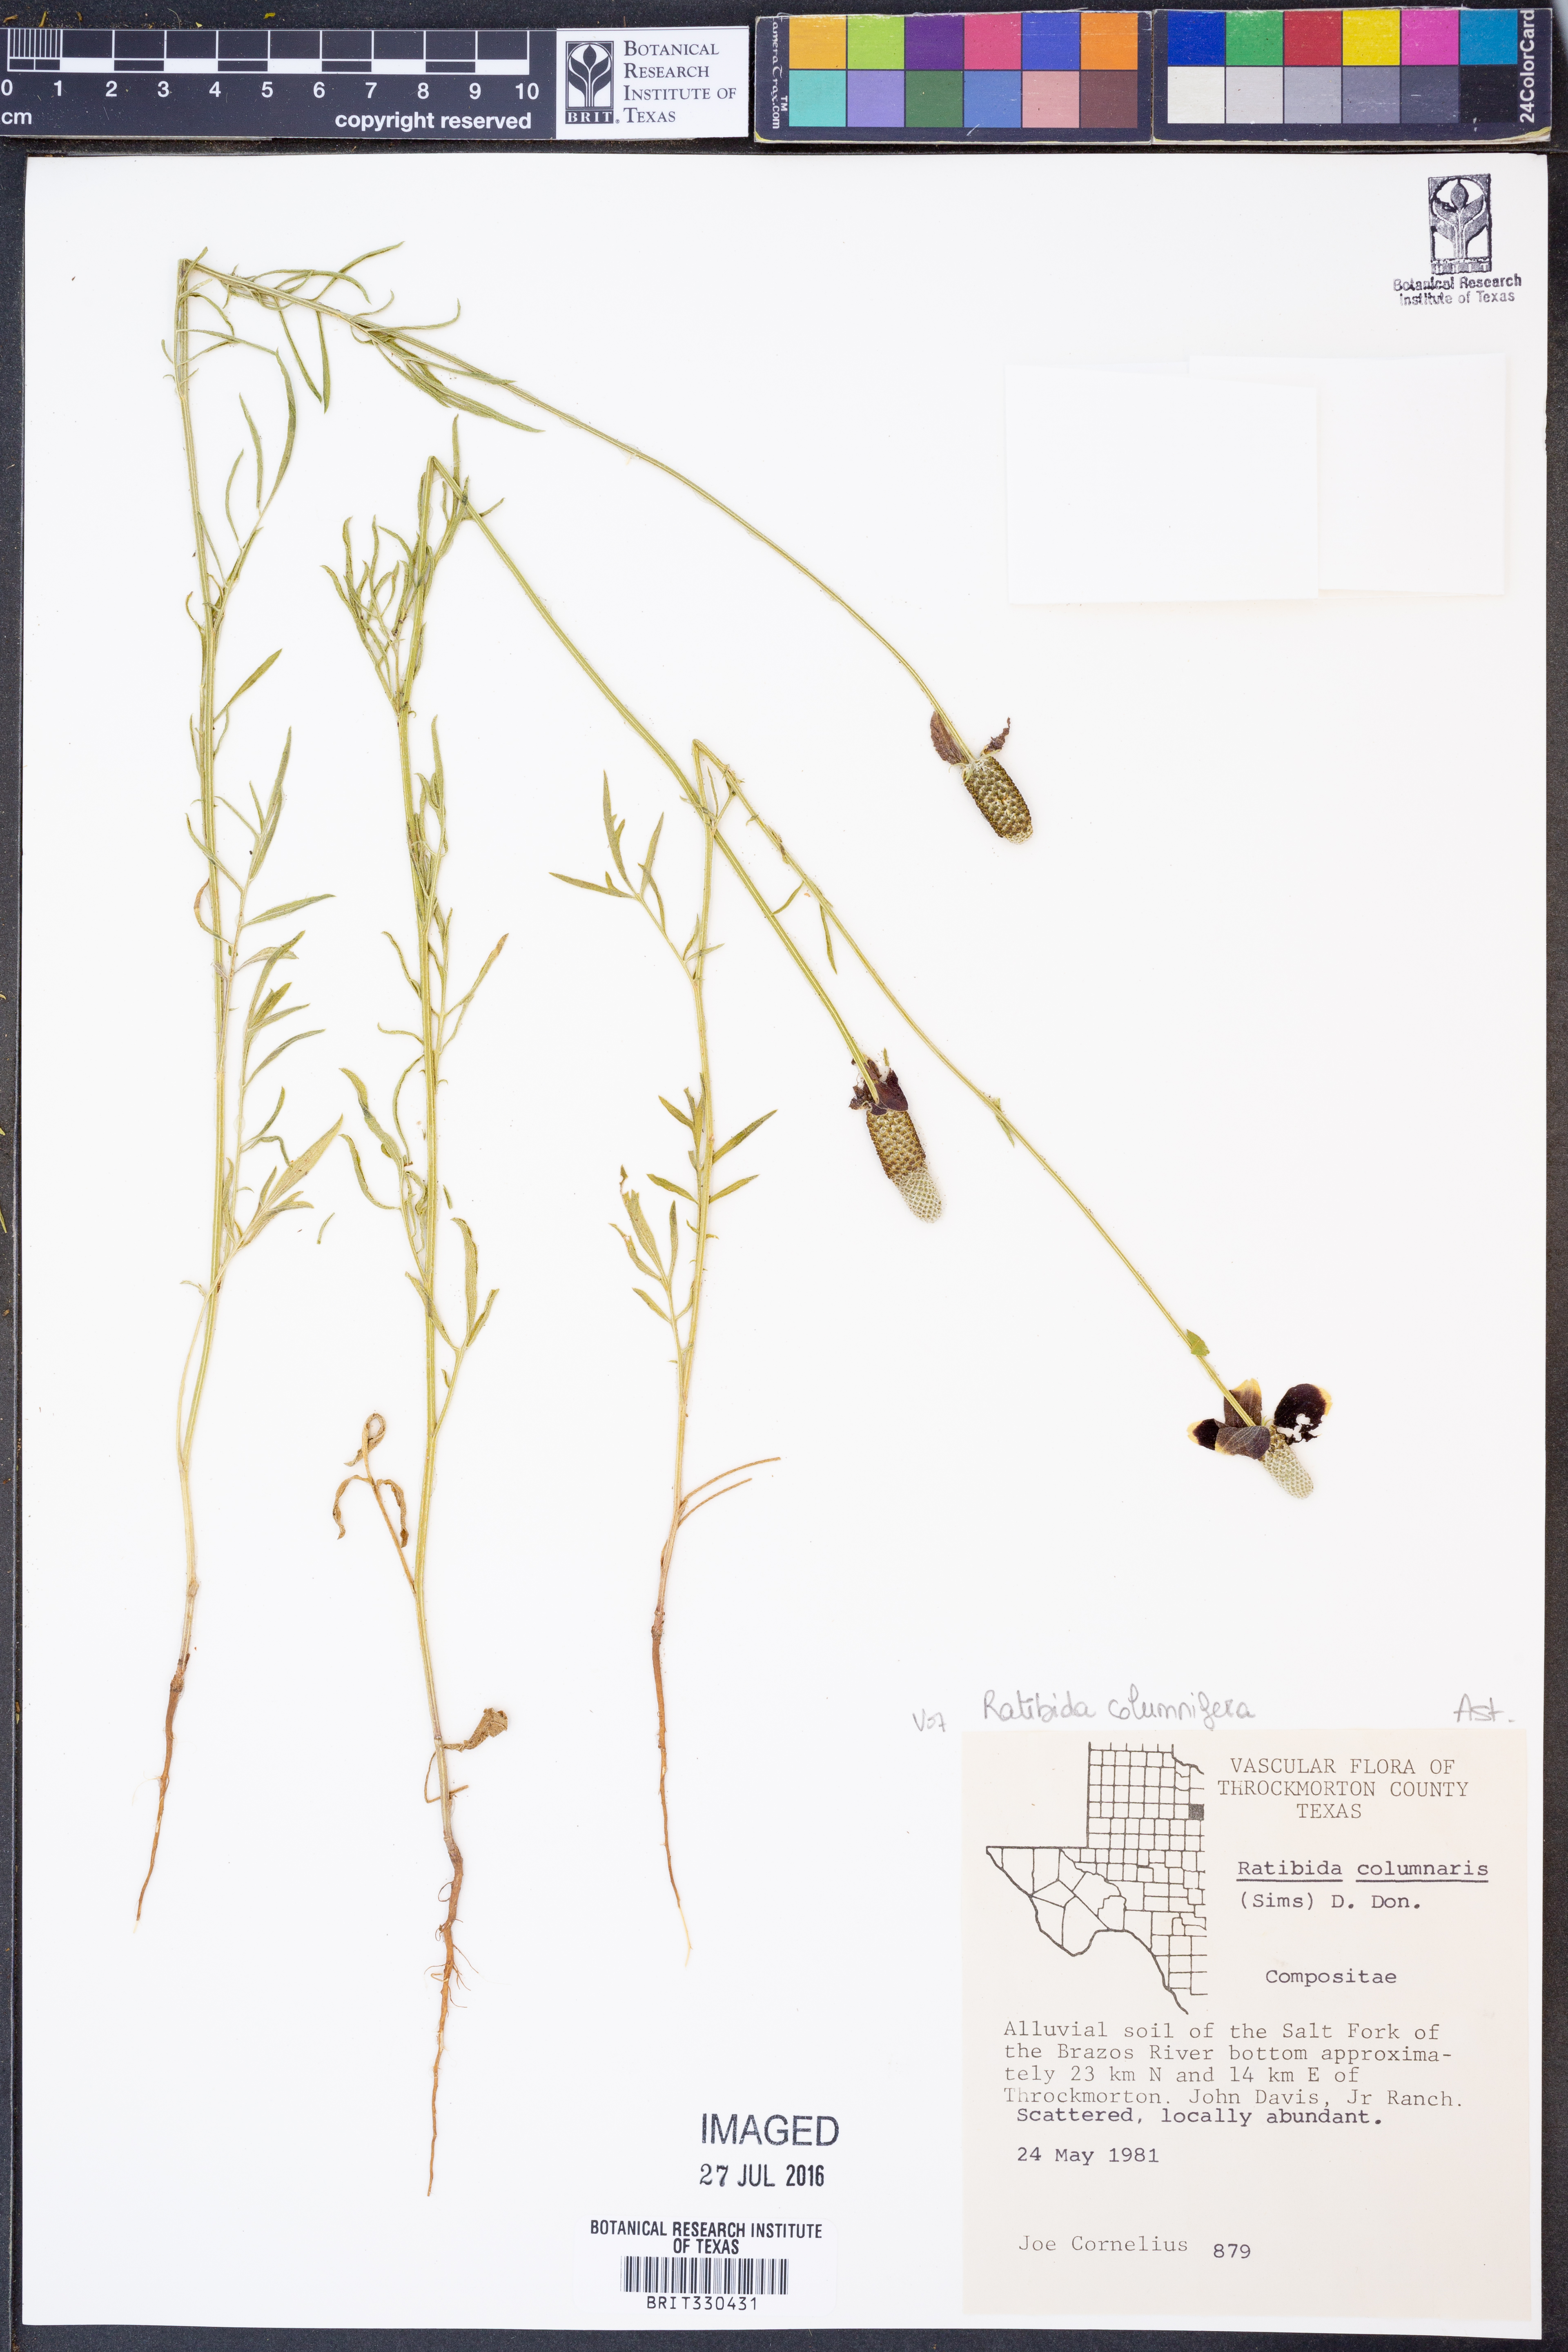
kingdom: Plantae
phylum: Tracheophyta
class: Magnoliopsida
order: Asterales
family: Asteraceae
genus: Ratibida
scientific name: Ratibida columnifera
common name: Prairie coneflower
